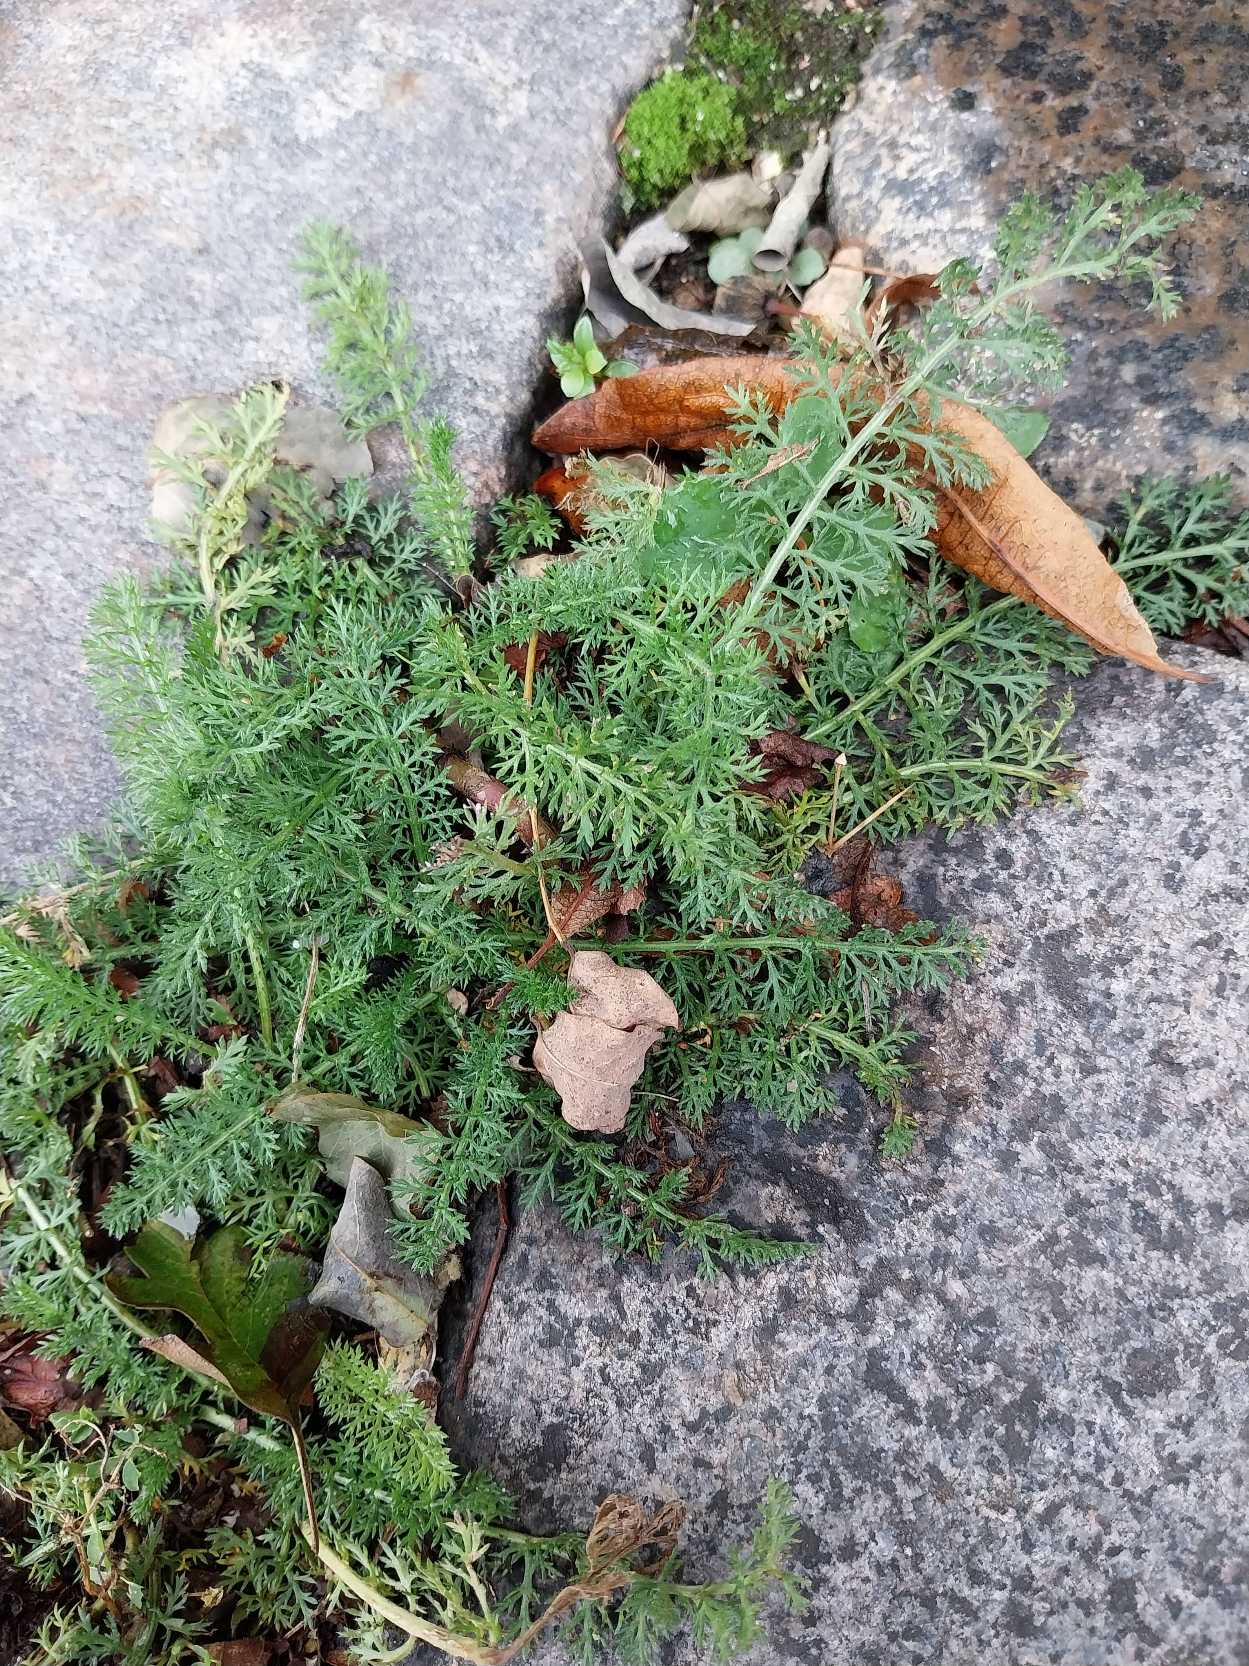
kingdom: Plantae
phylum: Tracheophyta
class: Magnoliopsida
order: Asterales
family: Asteraceae
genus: Achillea
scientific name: Achillea millefolium
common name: Almindelig røllike
